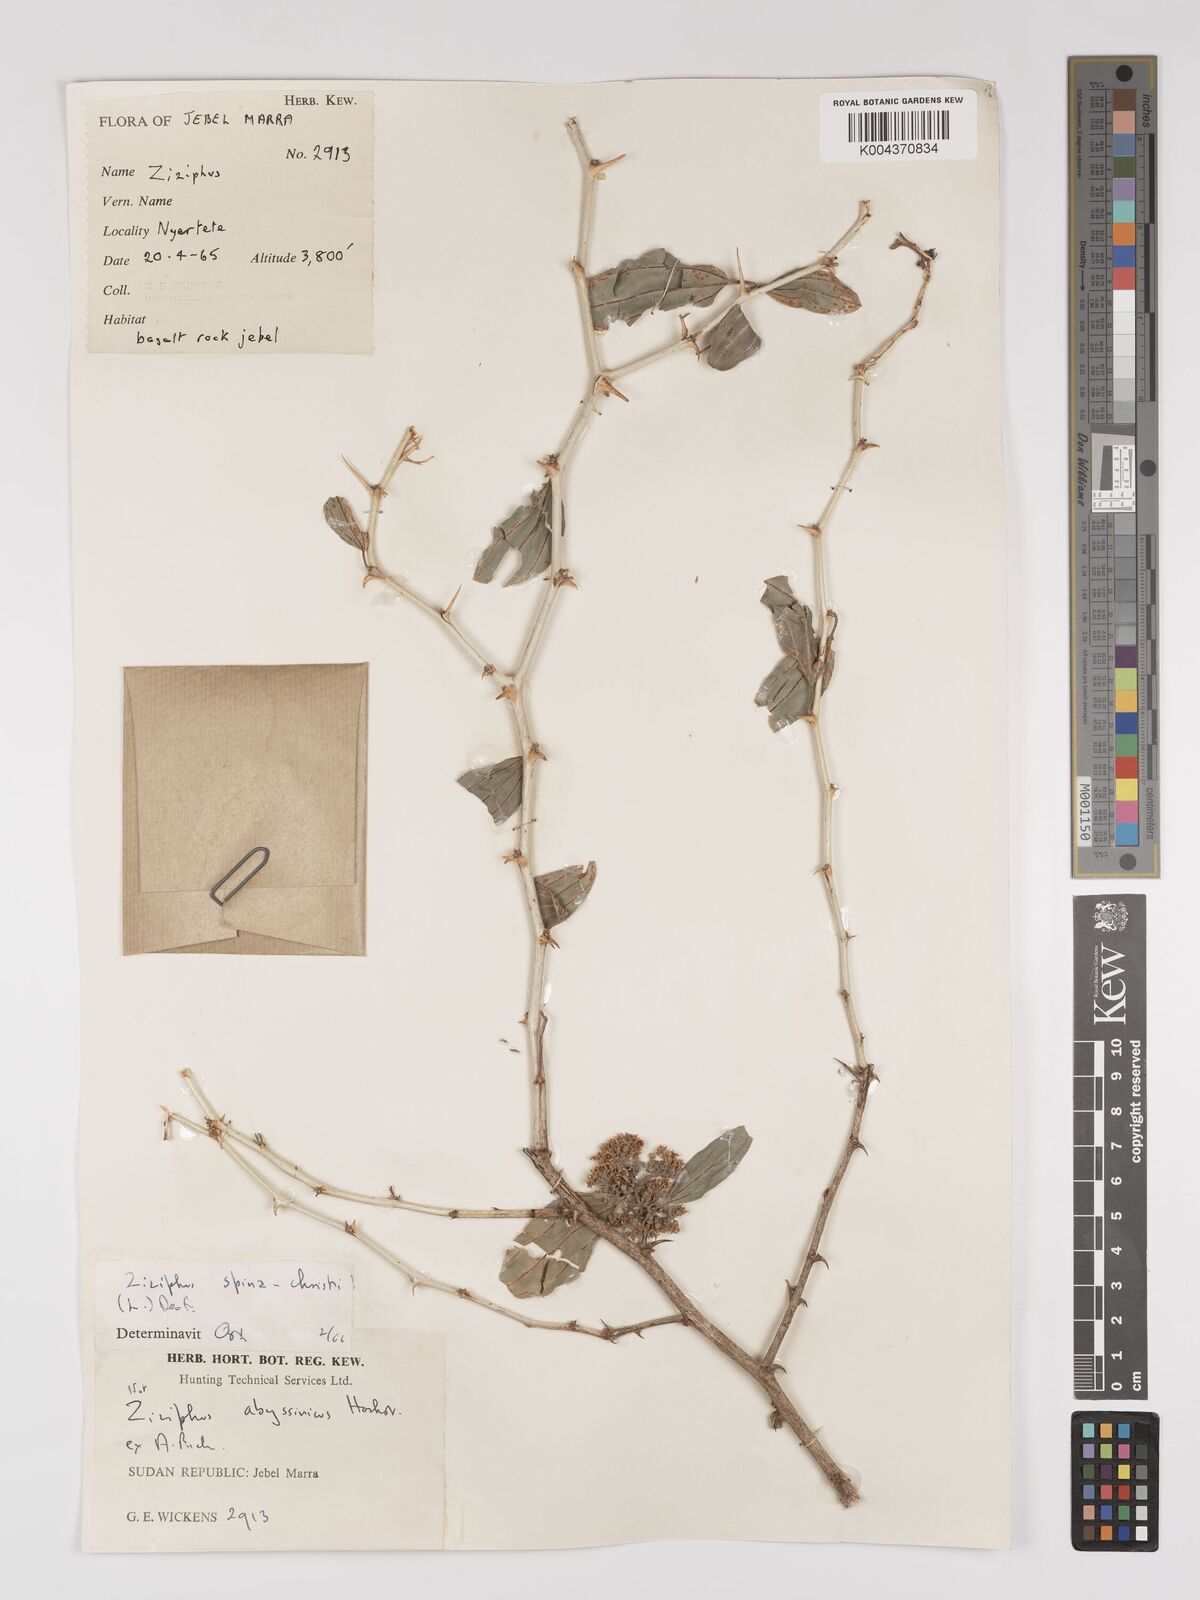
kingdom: Plantae
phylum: Tracheophyta
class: Magnoliopsida
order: Rosales
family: Rhamnaceae
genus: Ziziphus
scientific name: Ziziphus spina-christi
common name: Syrian christ-thorn
